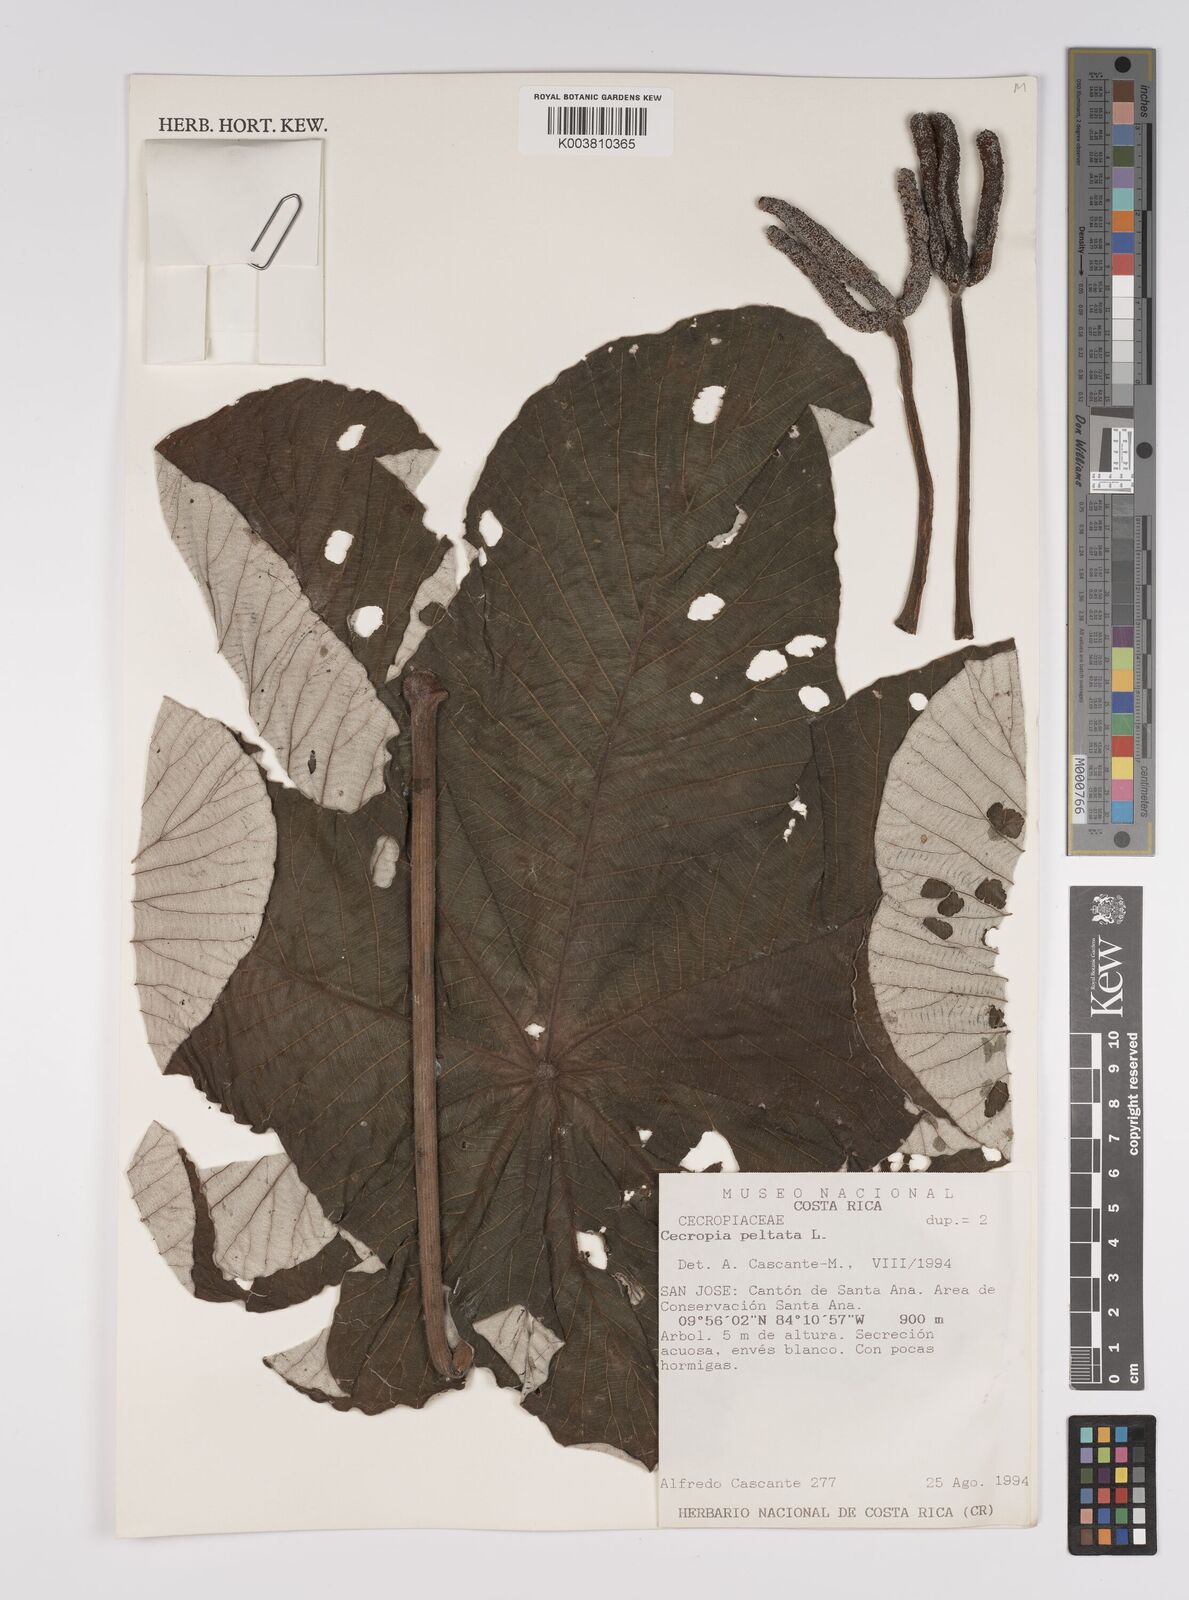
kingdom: Plantae
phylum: Tracheophyta
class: Magnoliopsida
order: Rosales
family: Urticaceae
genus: Cecropia
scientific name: Cecropia peltata
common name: Trumpet-tree
